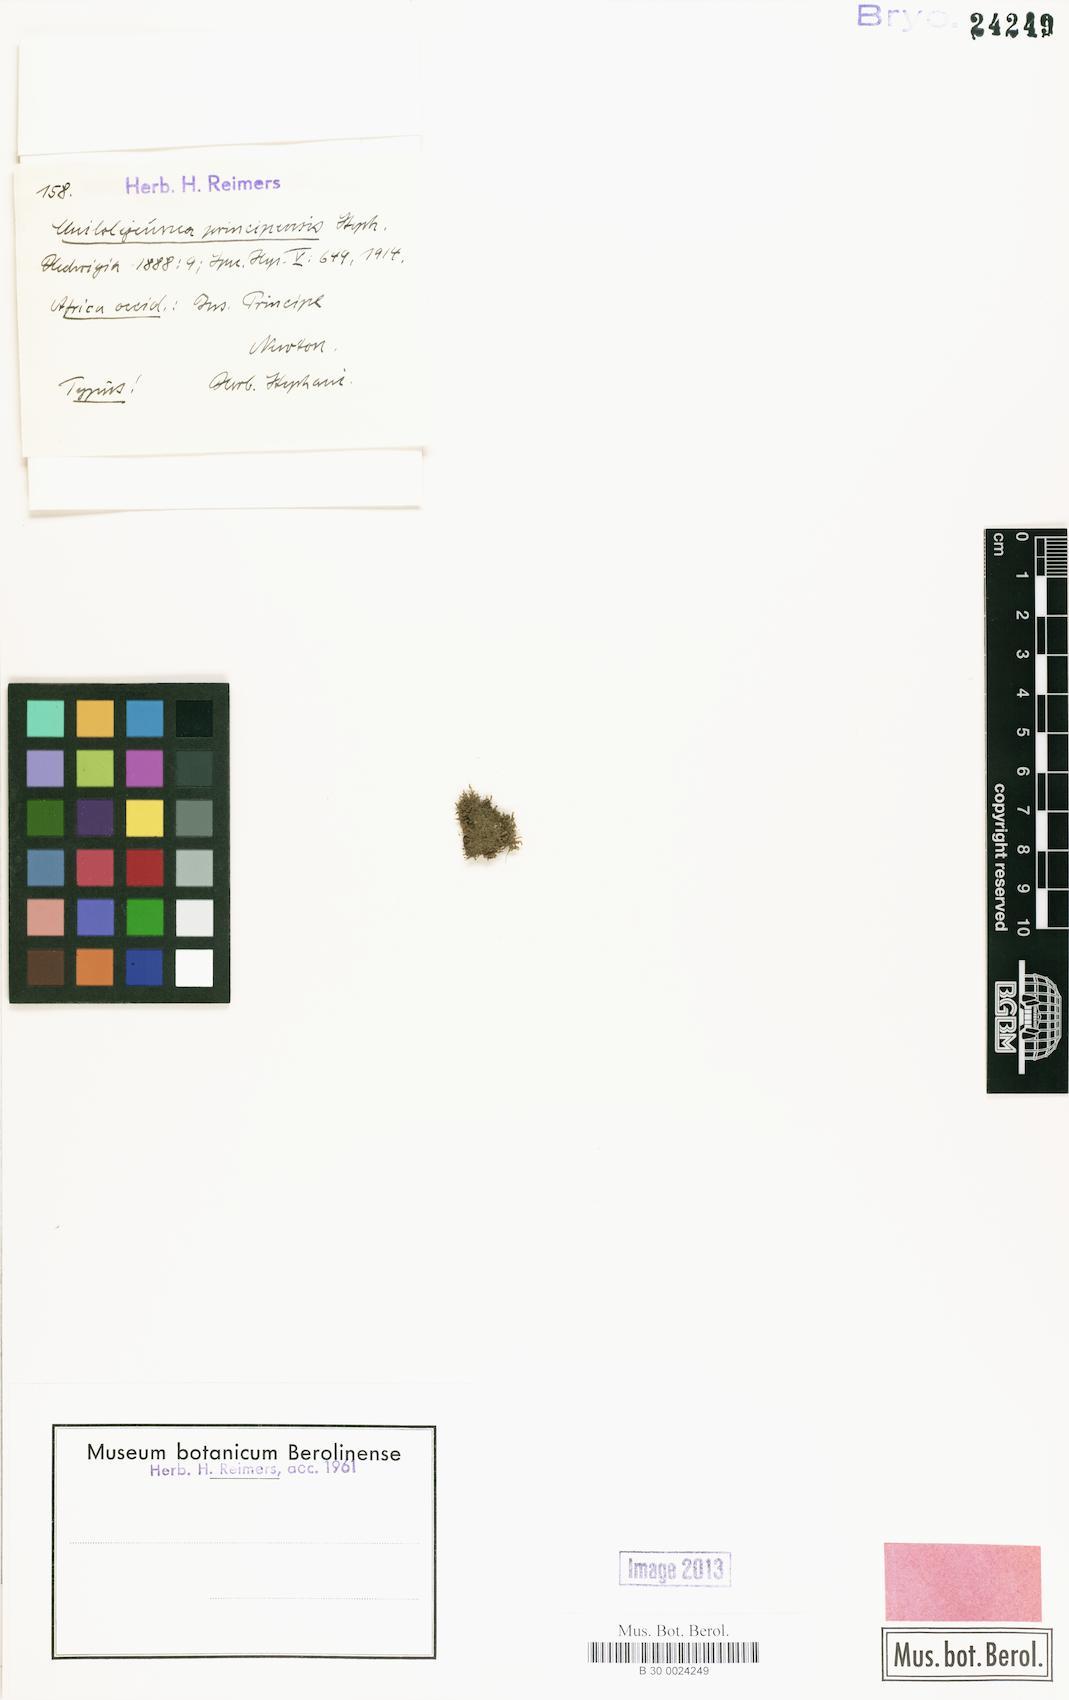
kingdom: Plantae
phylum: Marchantiophyta
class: Jungermanniopsida
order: Porellales
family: Lejeuneaceae
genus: Cheilolejeunea
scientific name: Cheilolejeunea rigidula
